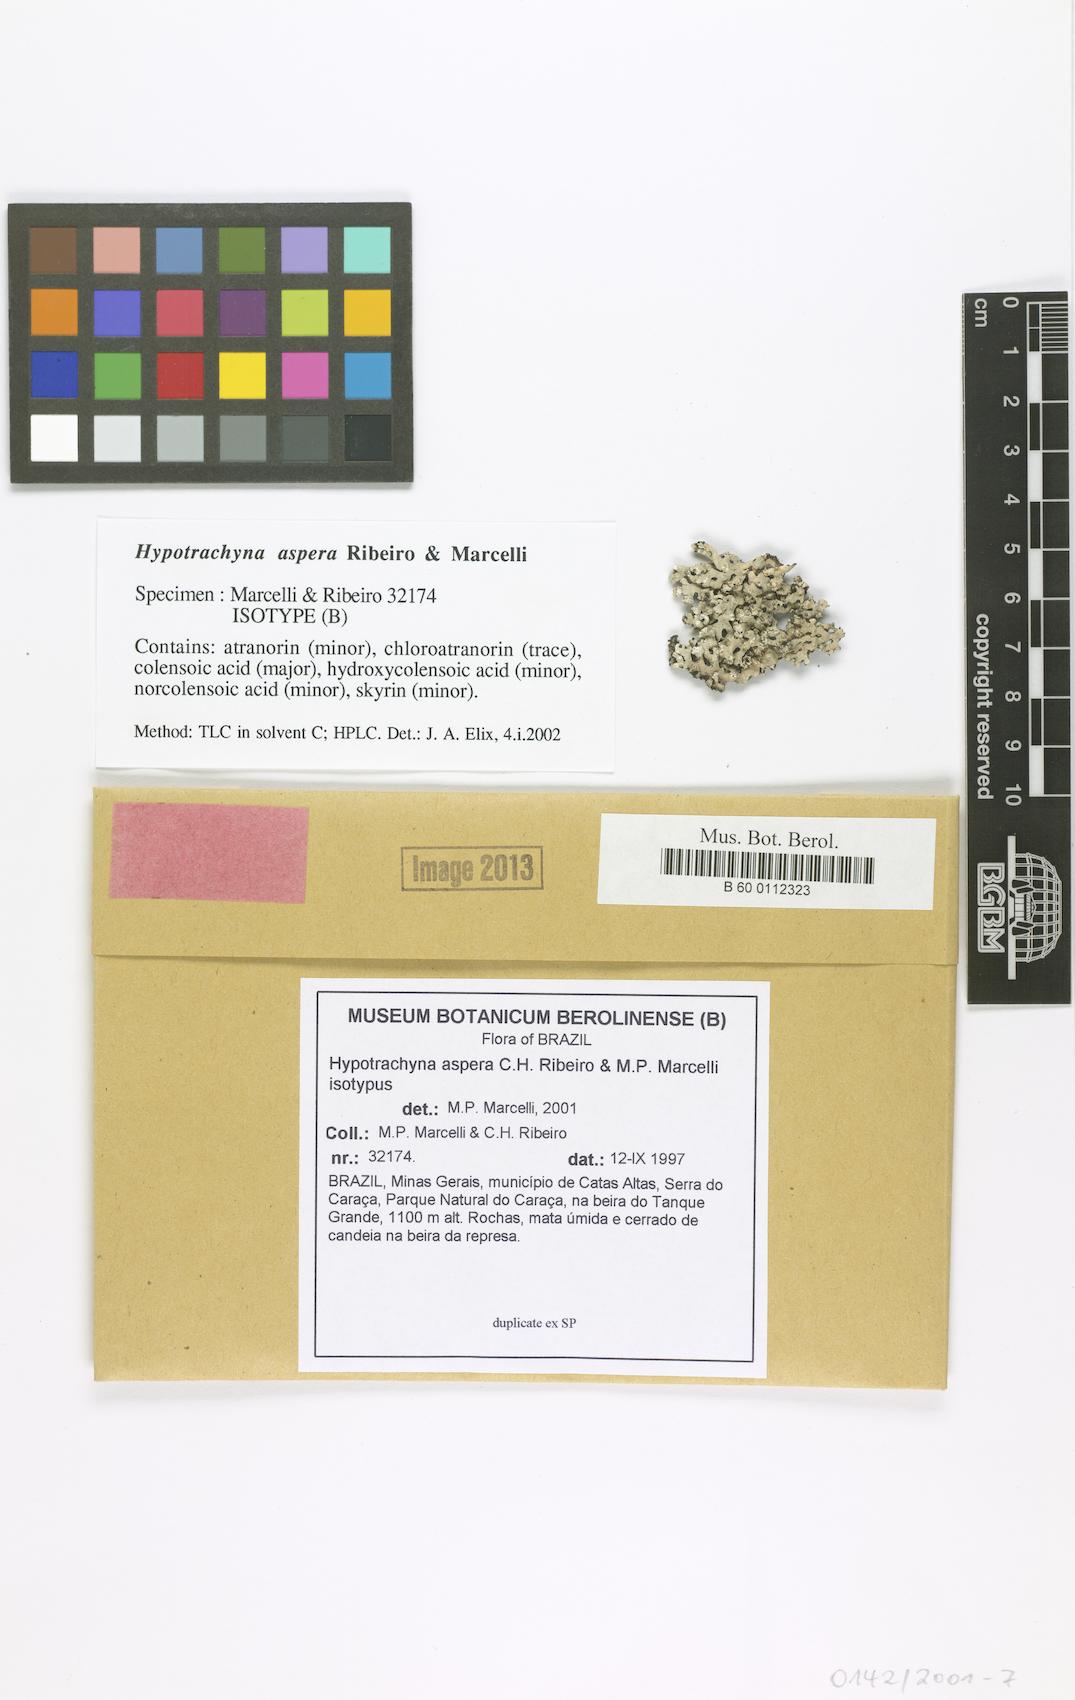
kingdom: Fungi
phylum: Ascomycota
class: Lecanoromycetes
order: Lecanorales
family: Parmeliaceae
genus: Hypotrachyna
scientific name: Hypotrachyna aspera
